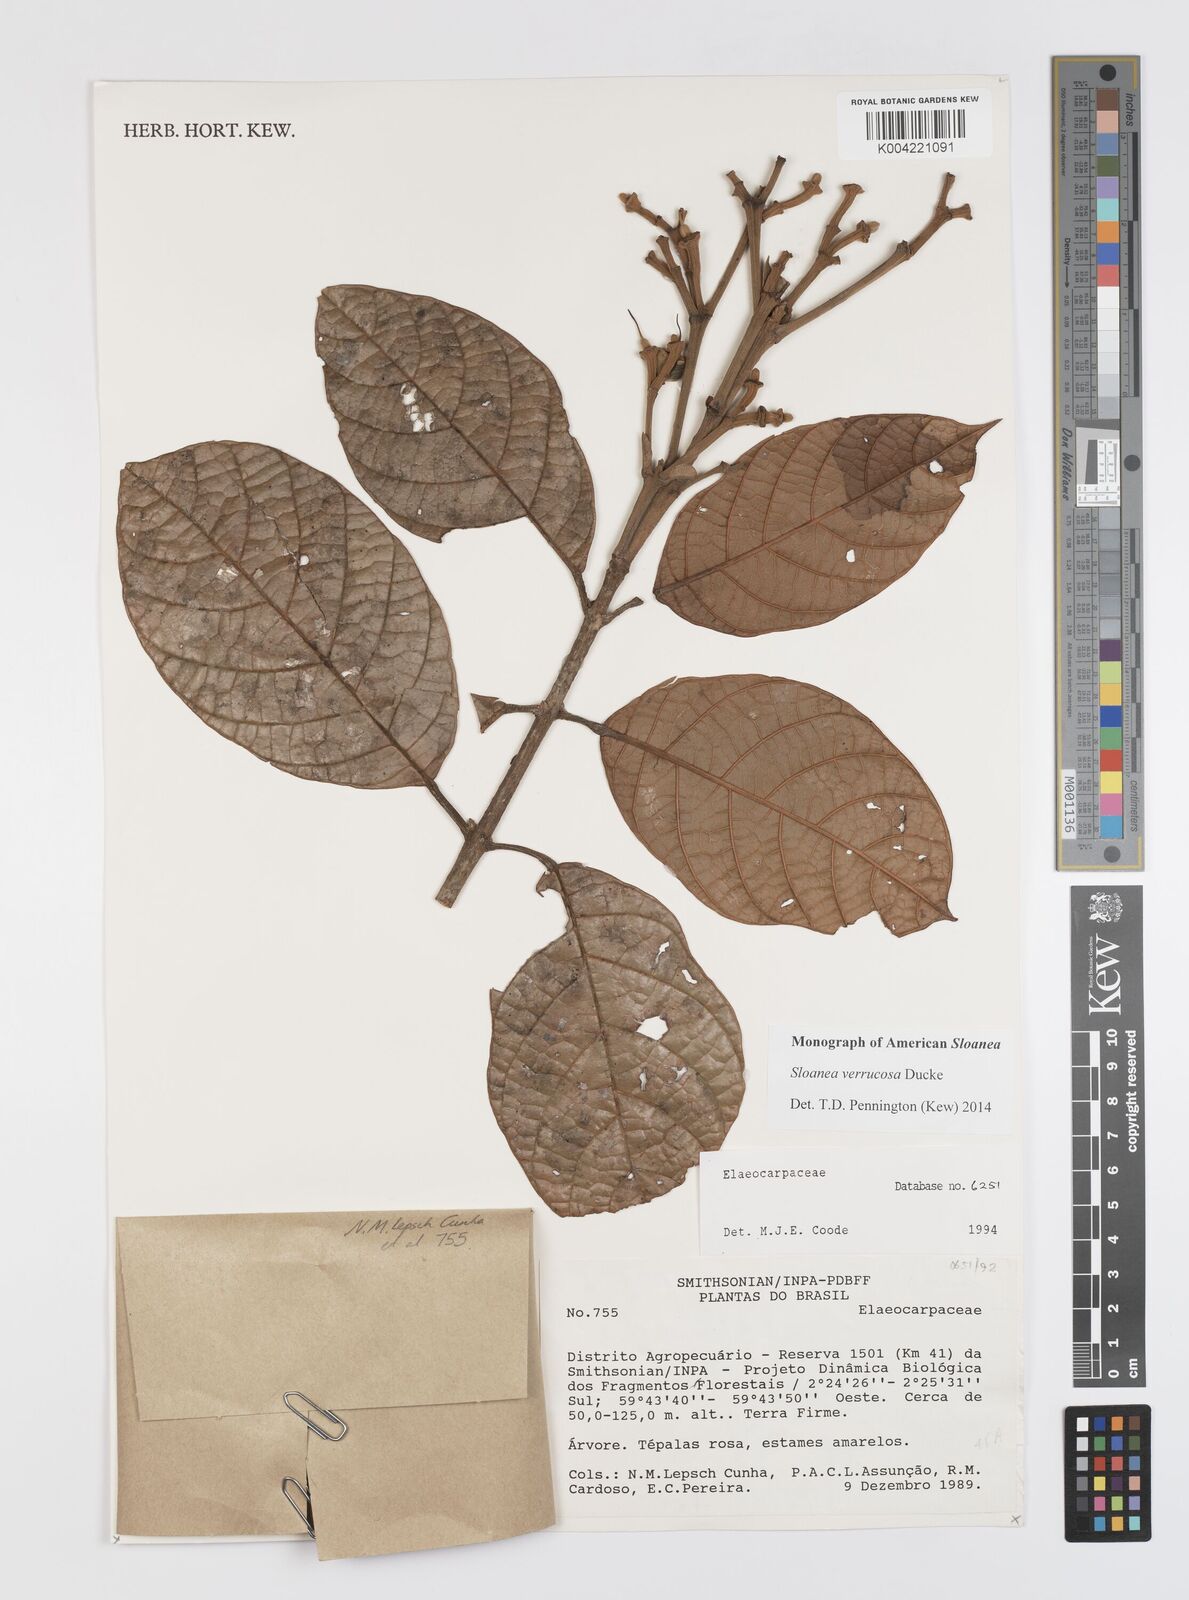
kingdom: Plantae
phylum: Tracheophyta
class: Magnoliopsida
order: Oxalidales
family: Elaeocarpaceae
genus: Sloanea
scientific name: Sloanea schomburgkii
